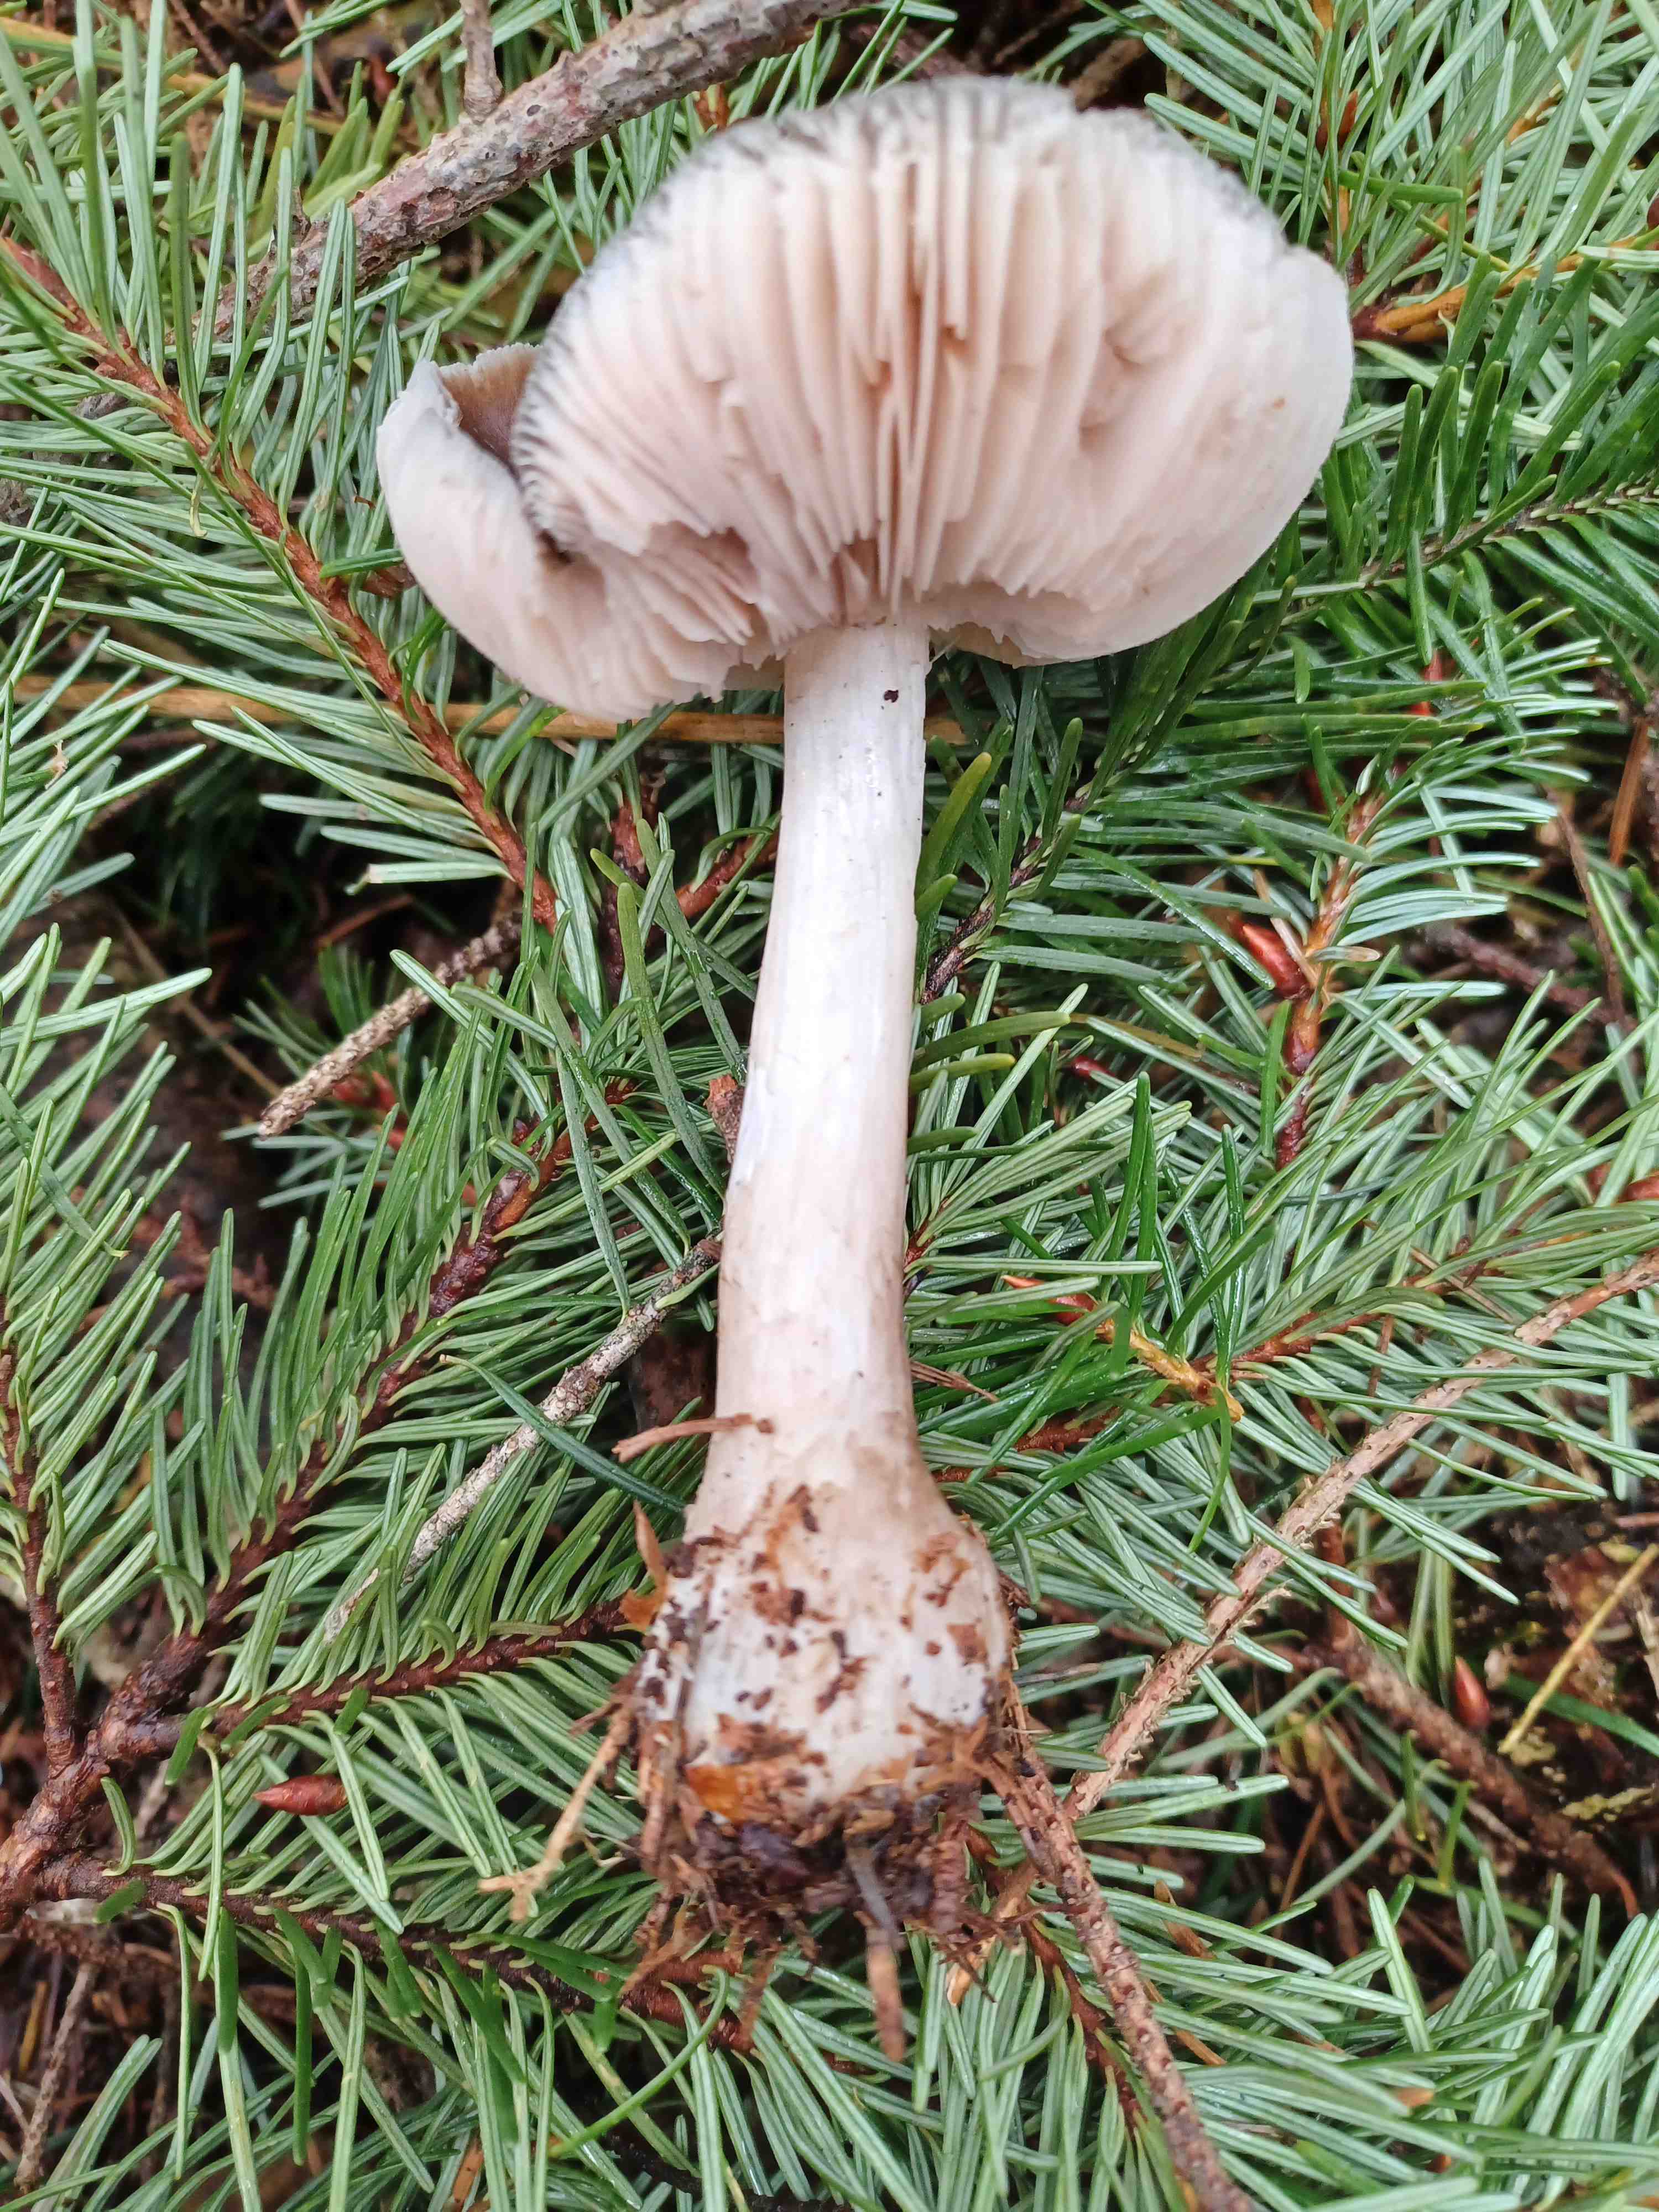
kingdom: Fungi
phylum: Basidiomycota
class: Agaricomycetes
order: Agaricales
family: Pluteaceae
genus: Pluteus
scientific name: Pluteus
